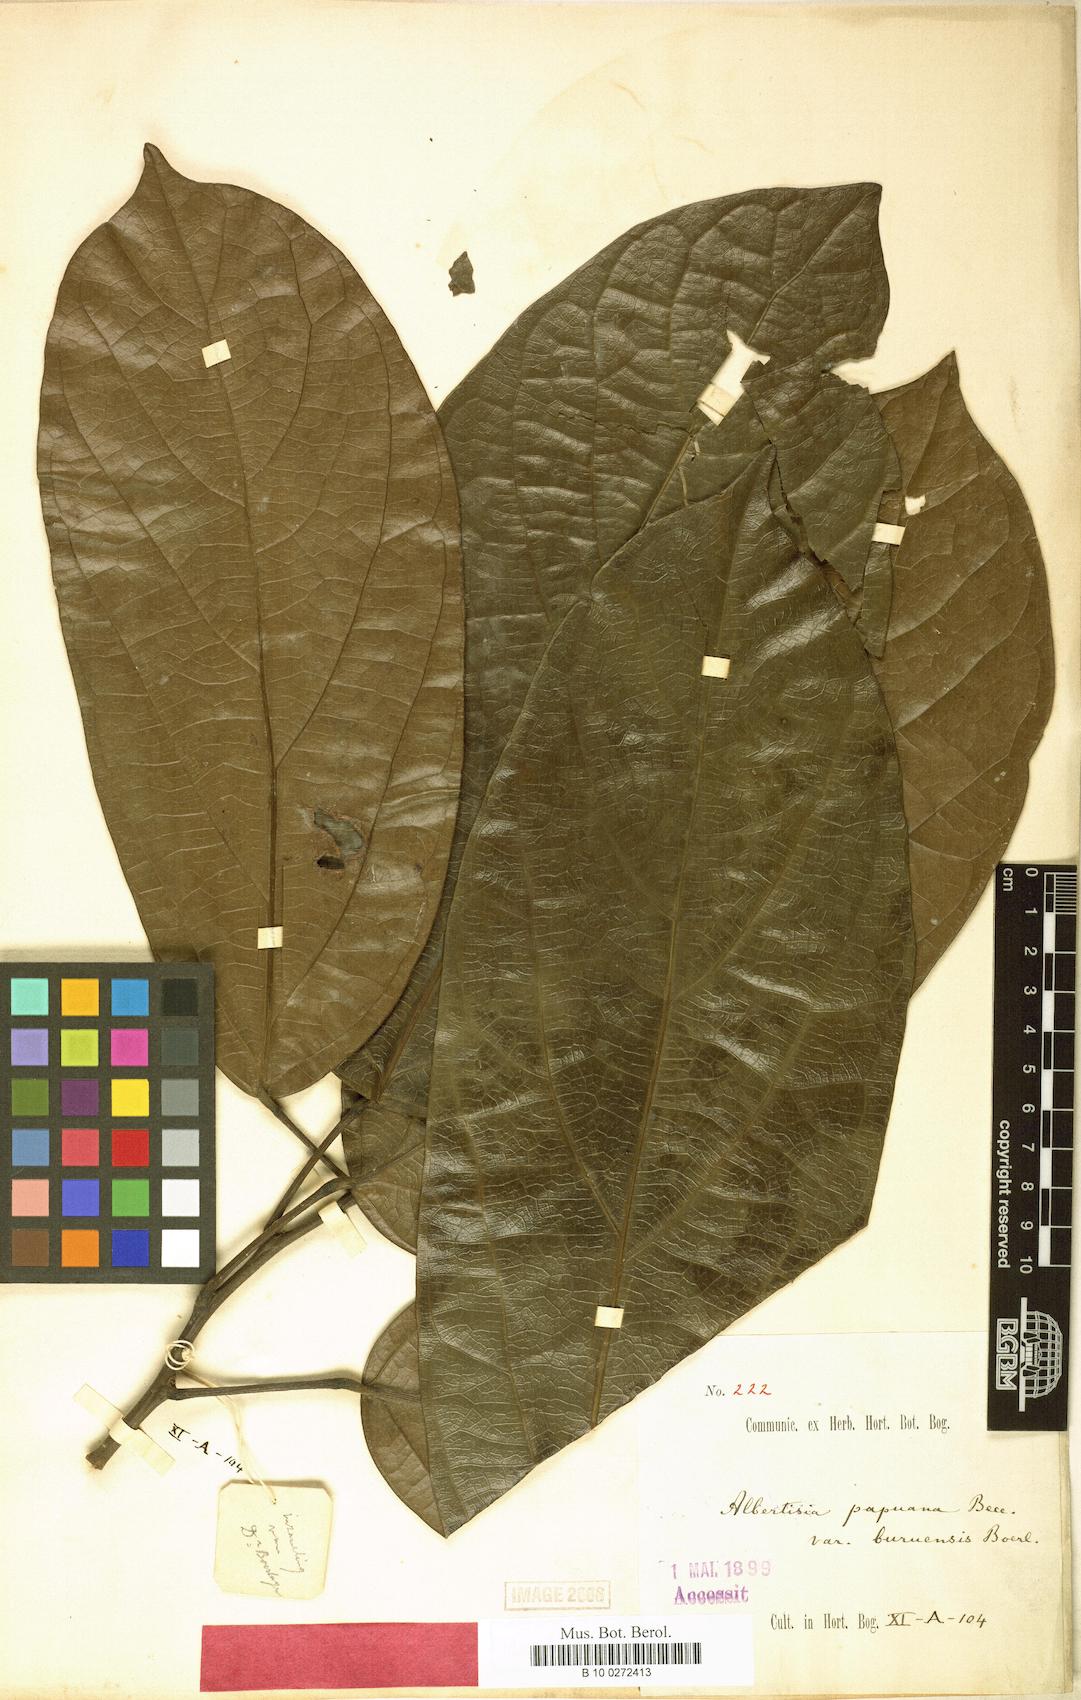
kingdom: Plantae
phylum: Tracheophyta
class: Magnoliopsida
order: Ranunculales
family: Menispermaceae
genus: Albertisia
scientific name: Albertisia papuana
